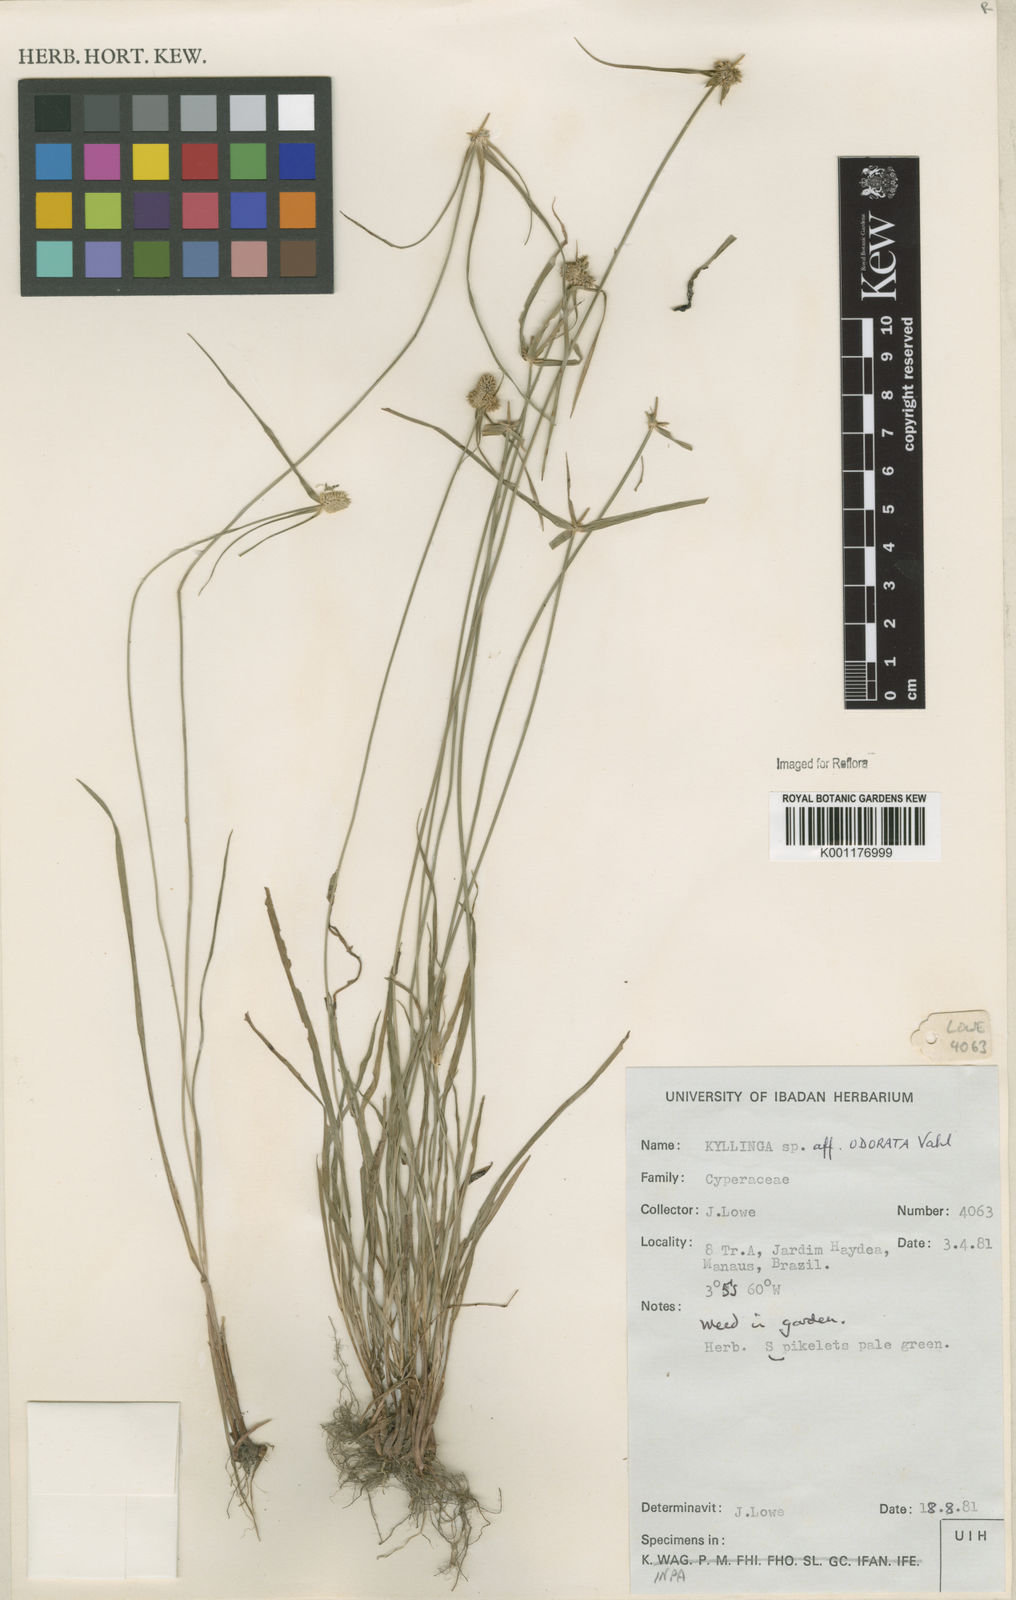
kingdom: Plantae
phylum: Tracheophyta
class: Liliopsida
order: Poales
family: Cyperaceae
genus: Cyperus
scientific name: Cyperus
